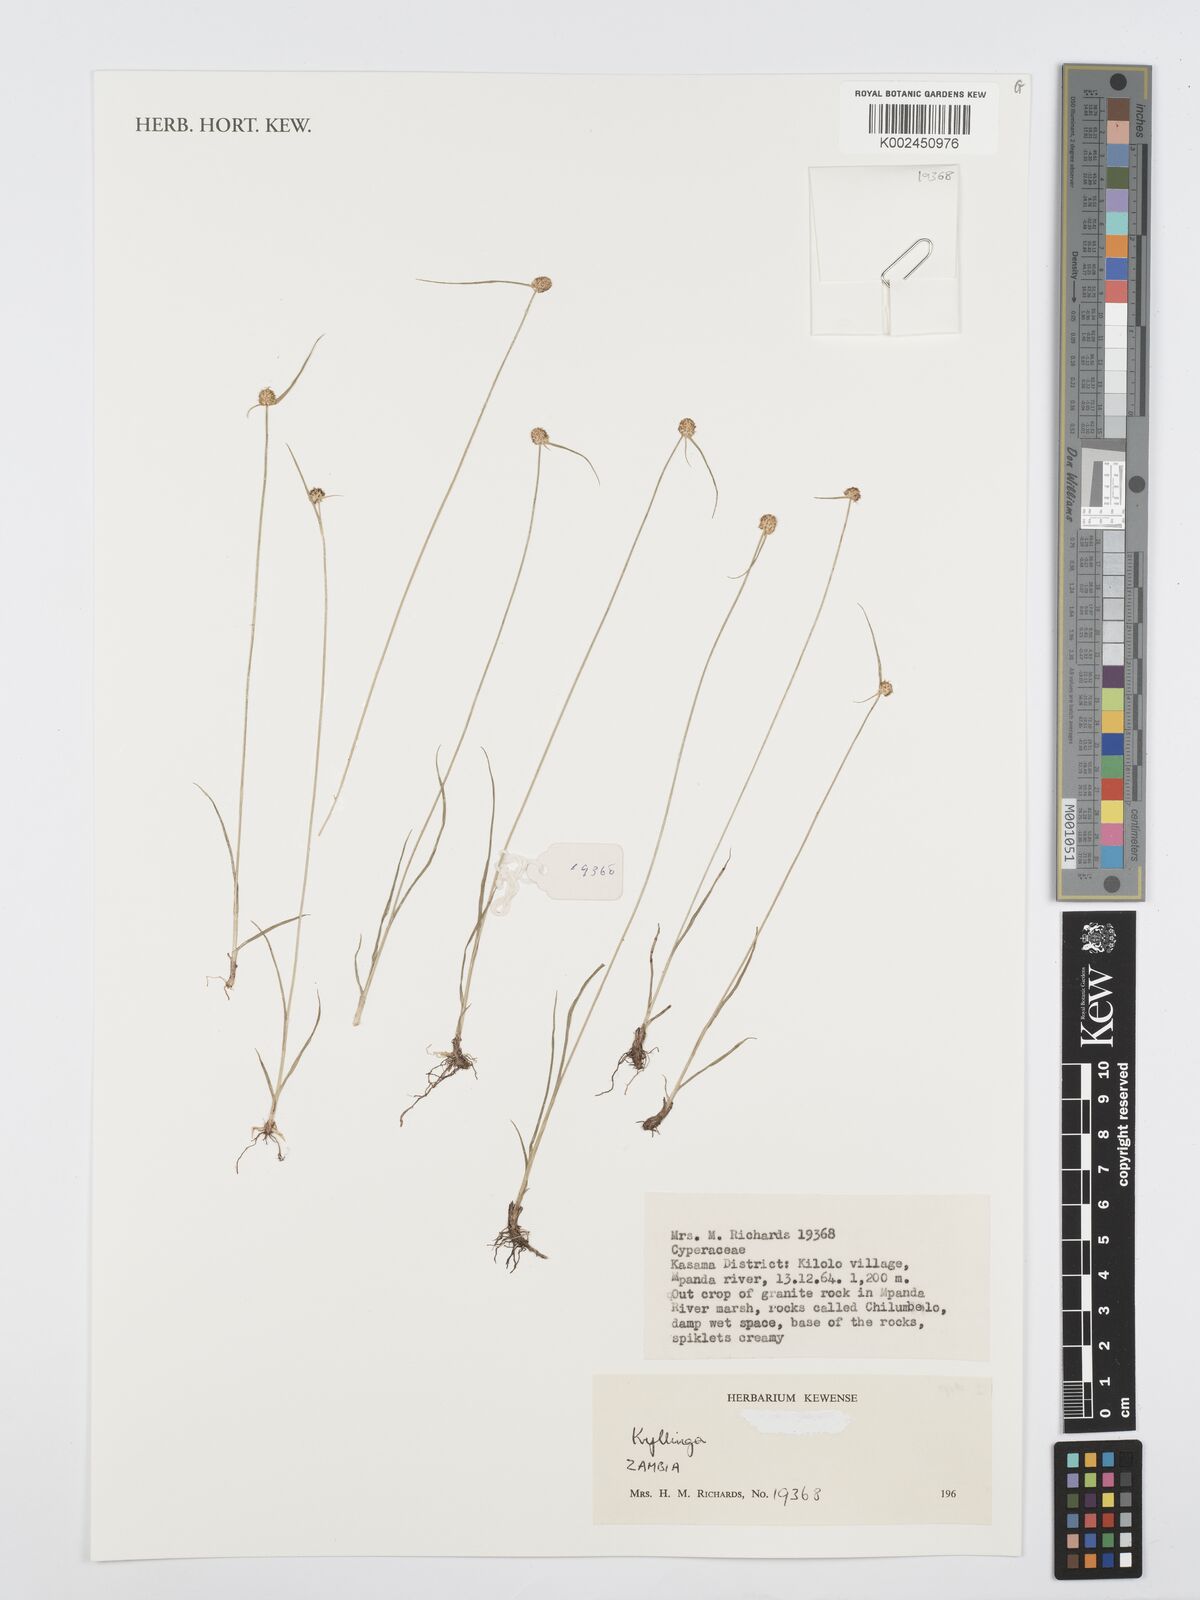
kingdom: Plantae
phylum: Tracheophyta
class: Liliopsida
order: Poales
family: Cyperaceae
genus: Cyperus
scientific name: Cyperus
